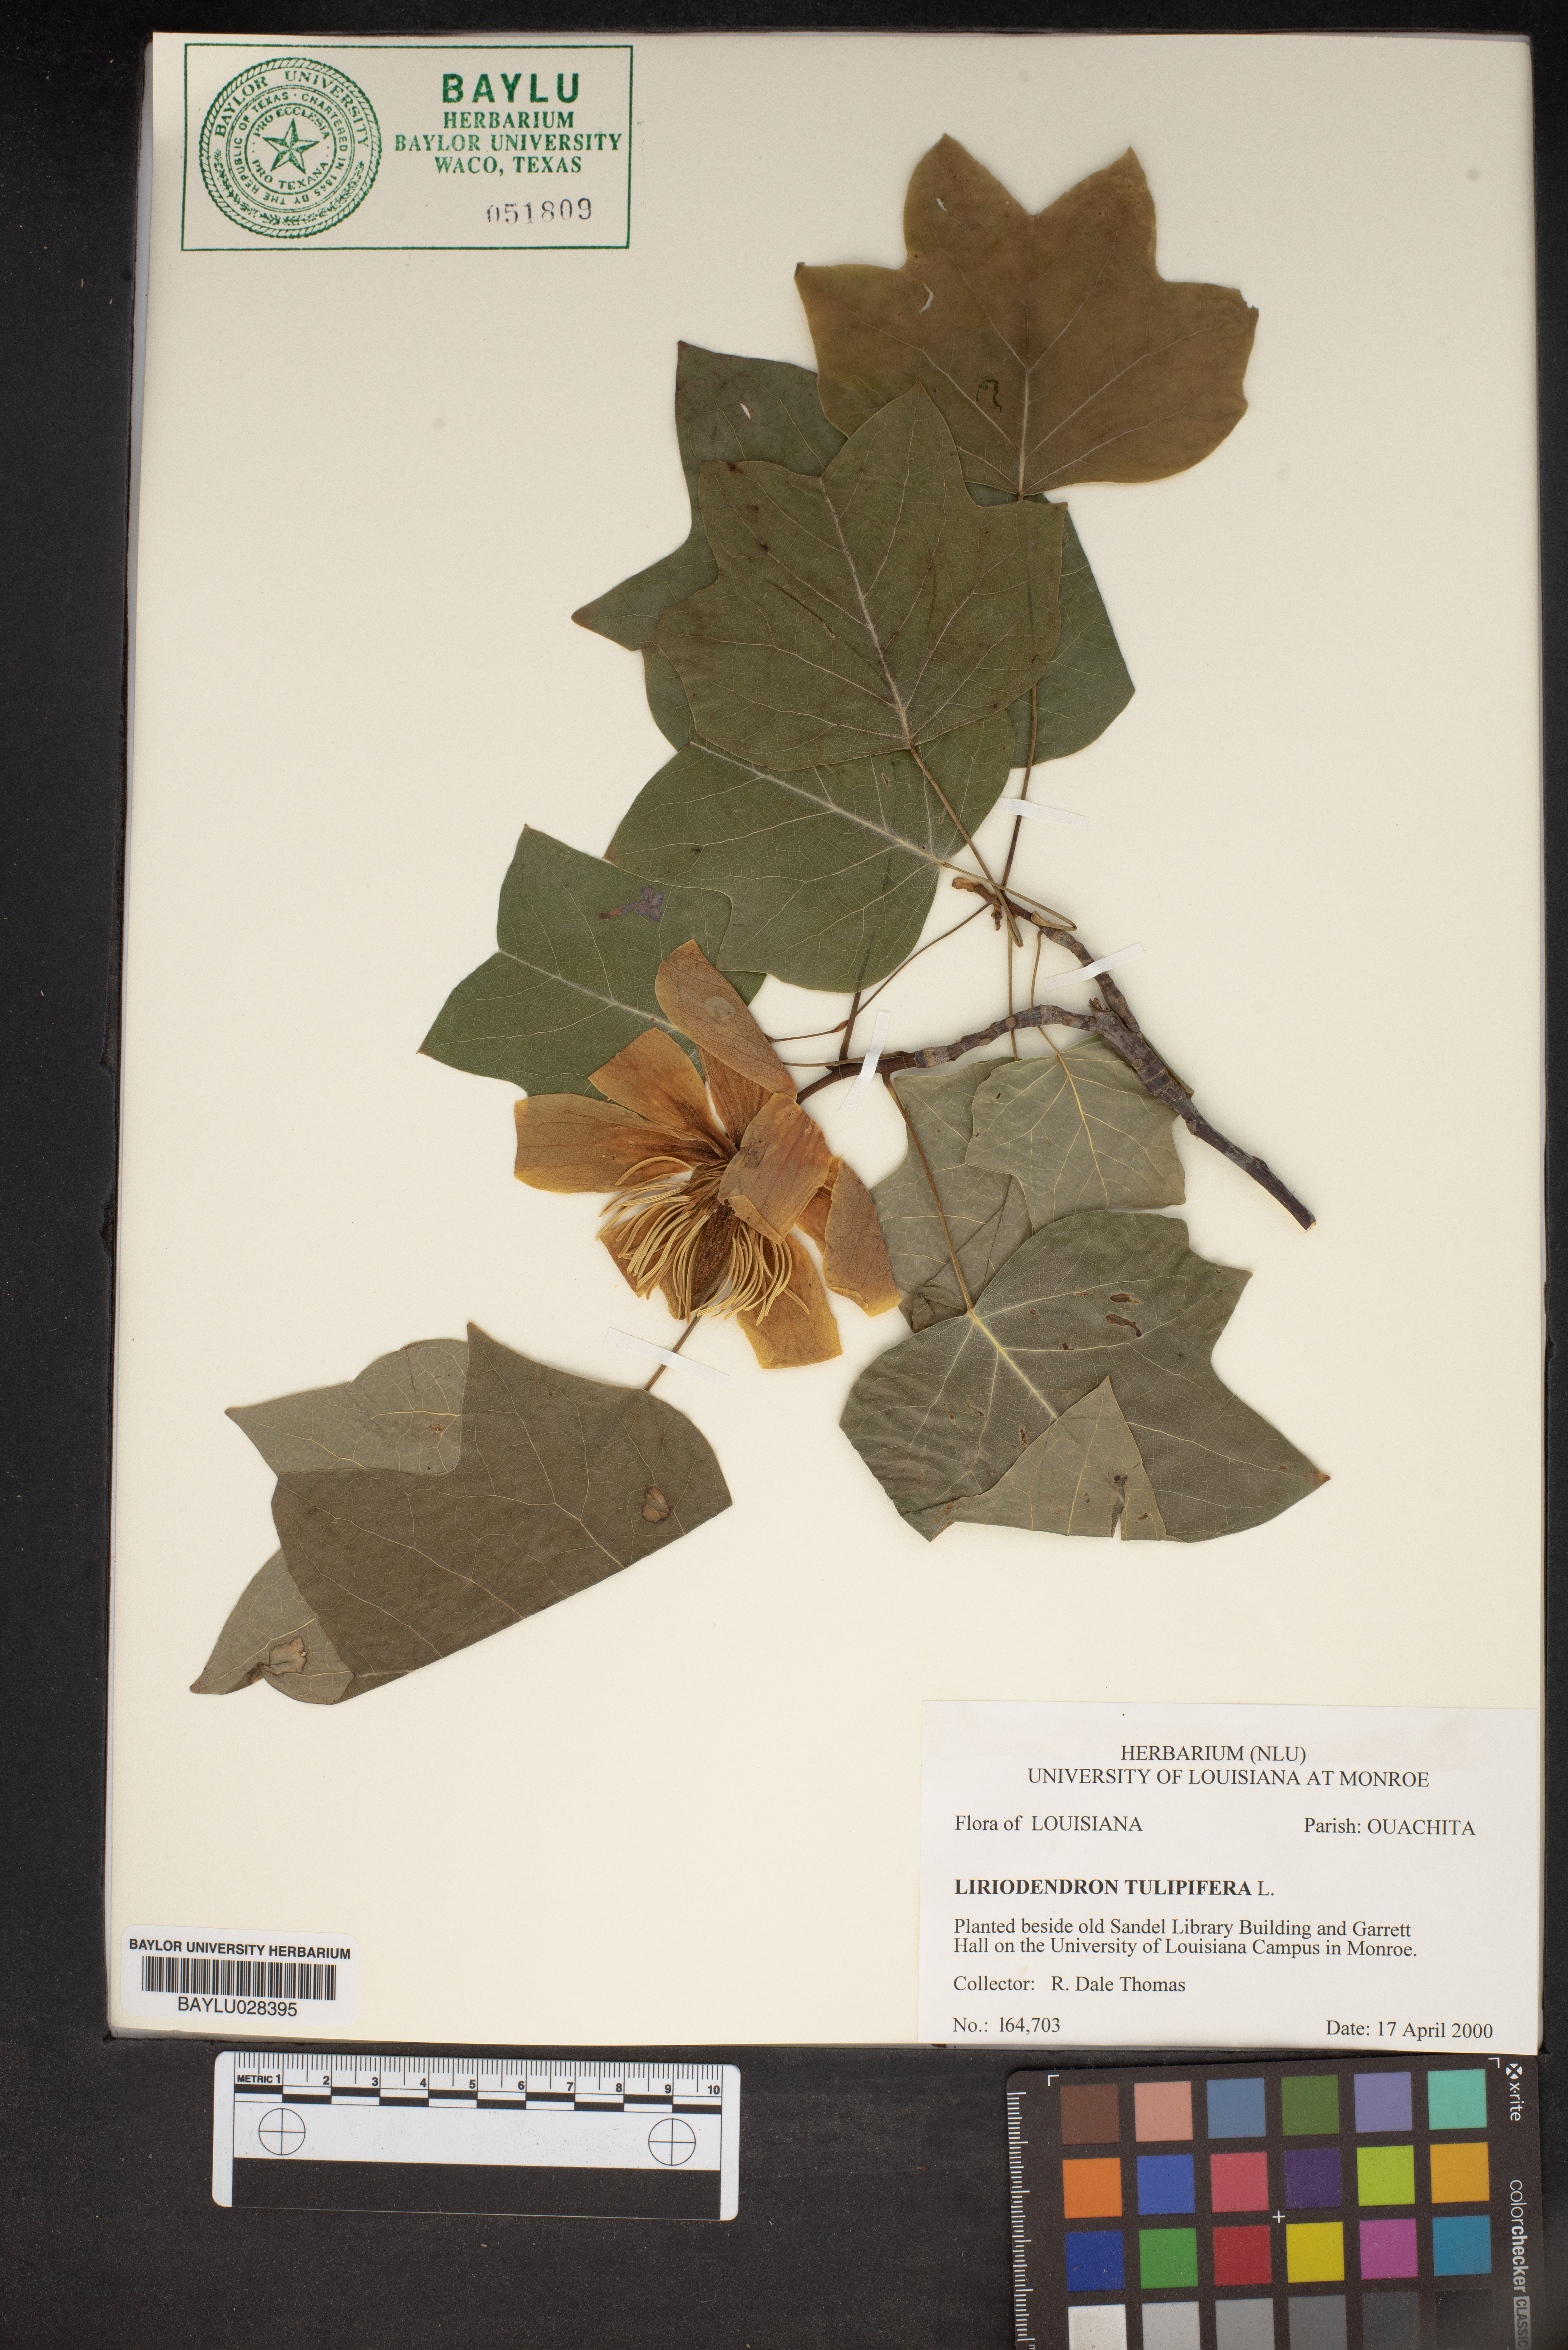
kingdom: Plantae
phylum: Tracheophyta
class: Magnoliopsida
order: Magnoliales
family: Magnoliaceae
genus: Liriodendron
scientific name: Liriodendron tulipifera
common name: Tulip tree
